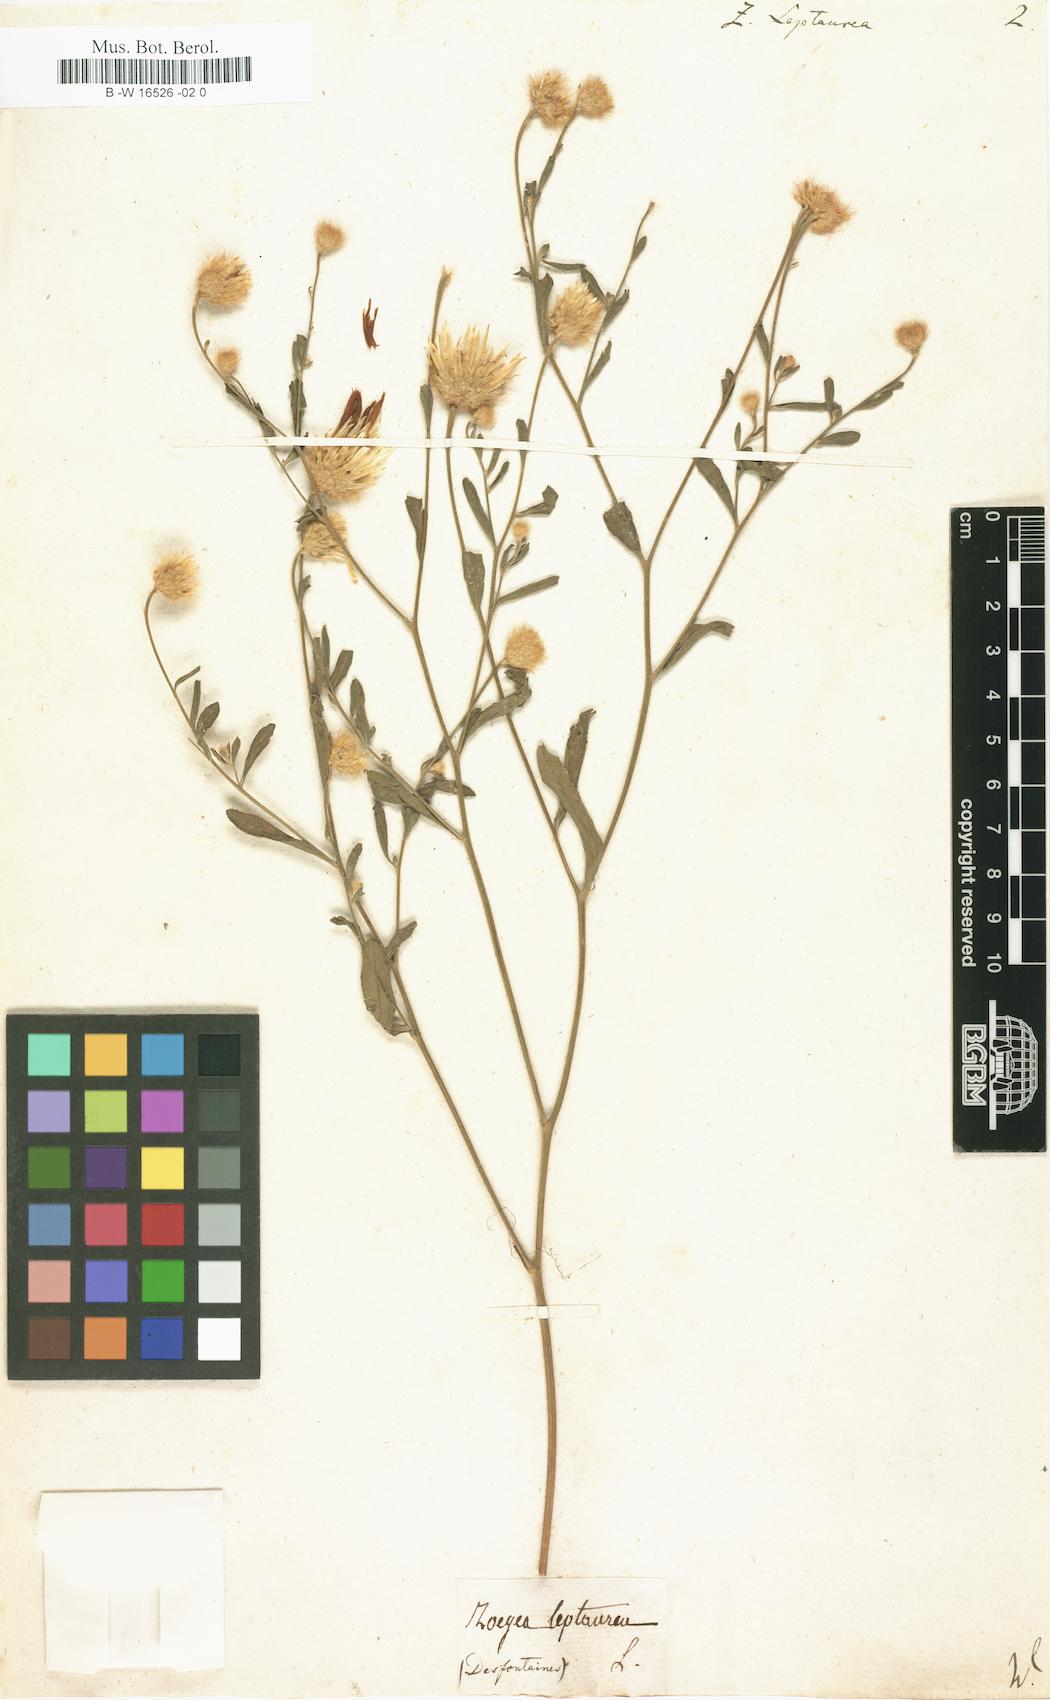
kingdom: Plantae
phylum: Tracheophyta
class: Magnoliopsida
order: Asterales
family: Asteraceae
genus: Zoegea
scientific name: Zoegea leptaurea
